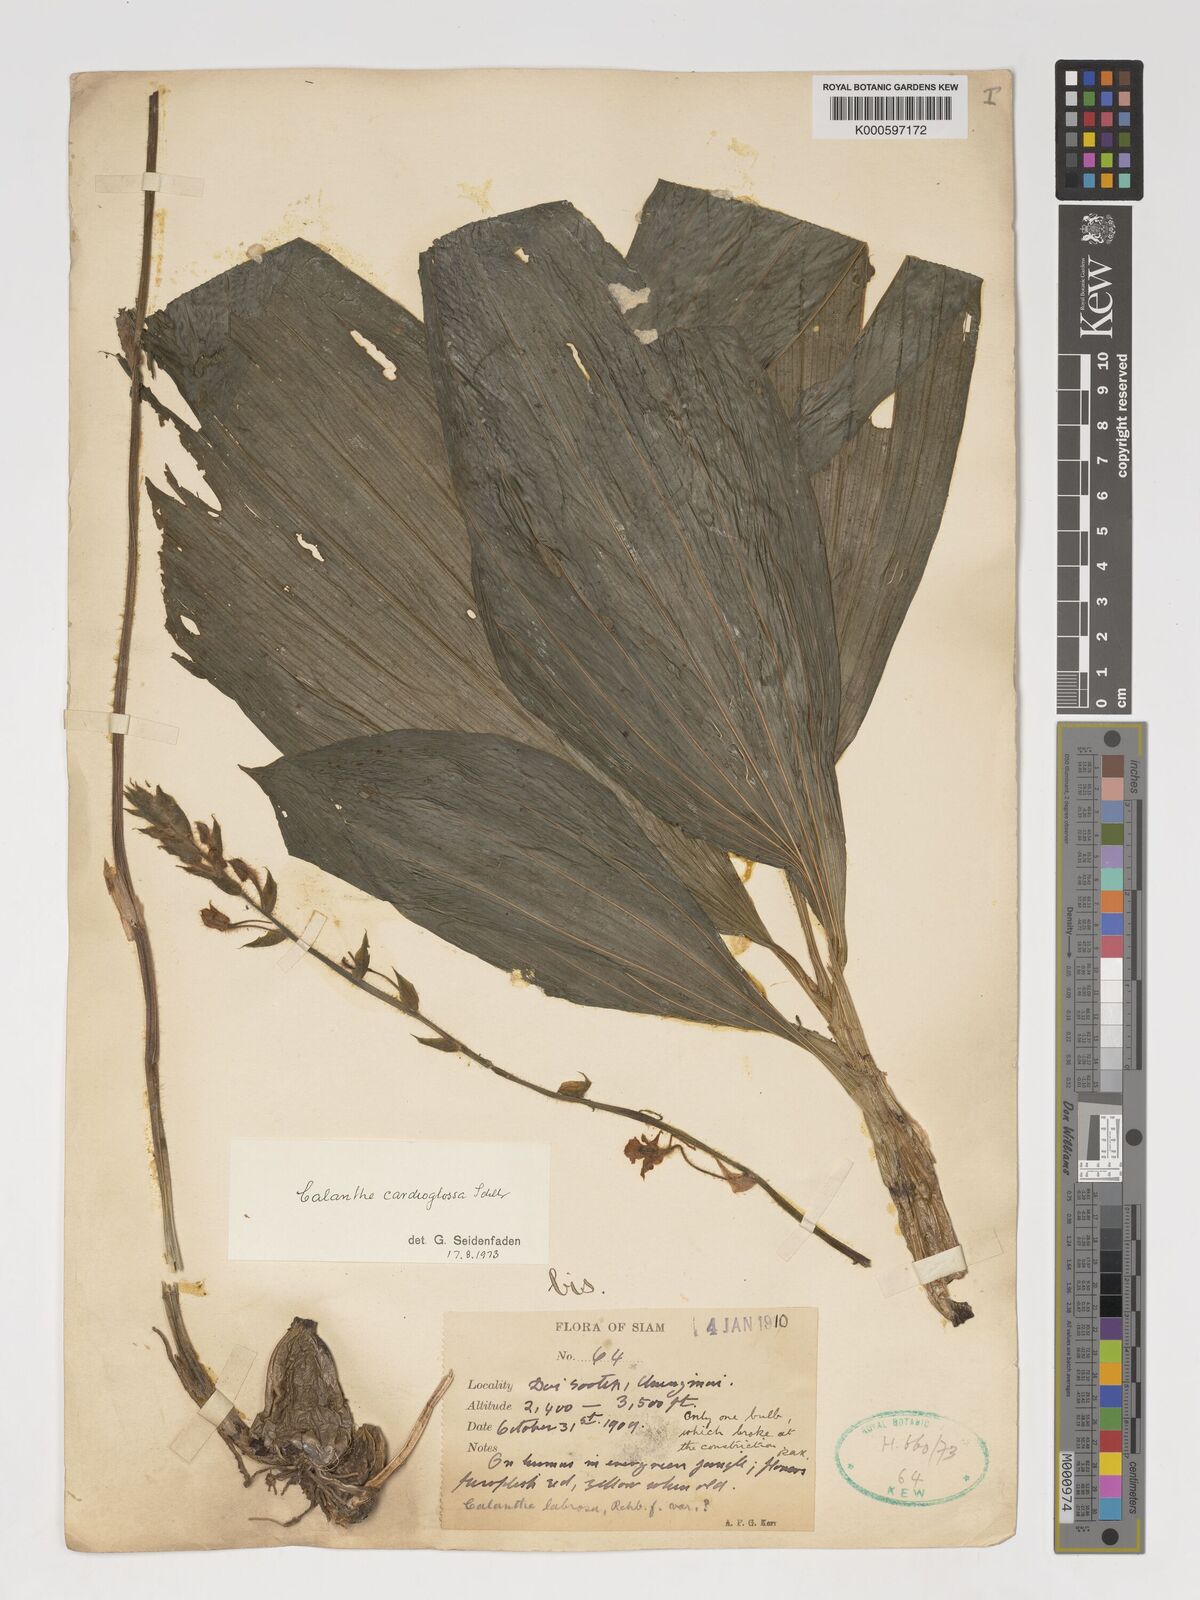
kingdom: Plantae
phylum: Tracheophyta
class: Liliopsida
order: Asparagales
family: Orchidaceae
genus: Calanthe
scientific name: Calanthe cardioglossa
